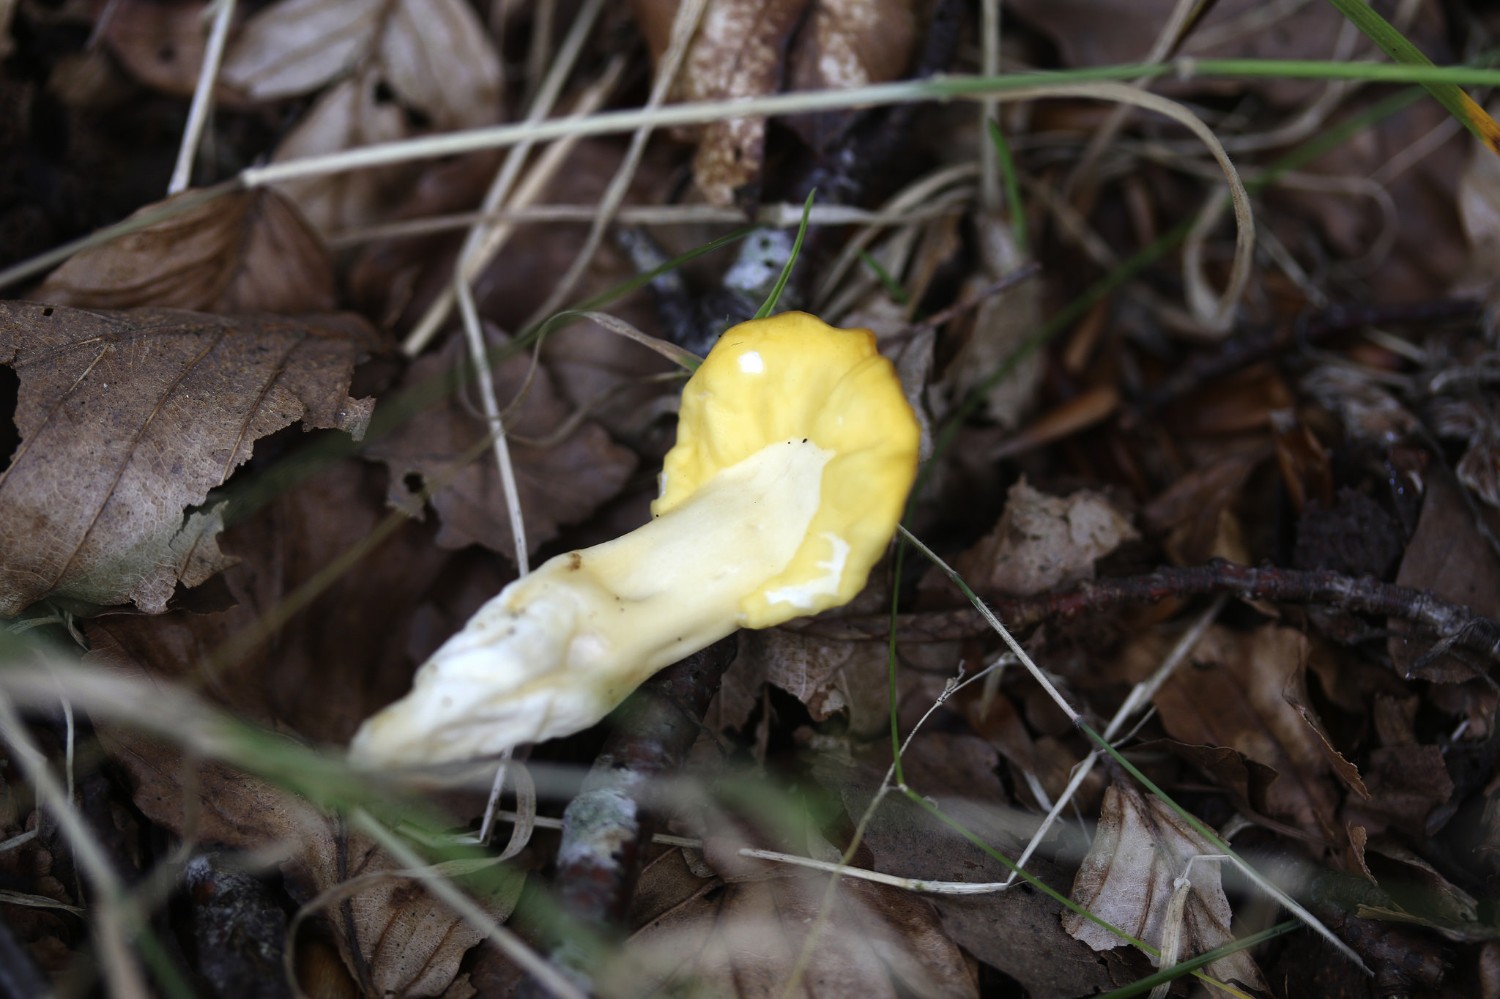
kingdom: Fungi
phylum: Ascomycota
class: Leotiomycetes
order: Rhytismatales
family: Cudoniaceae
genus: Spathularia
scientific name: Spathularia flavida
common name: gul spatelsvamp
